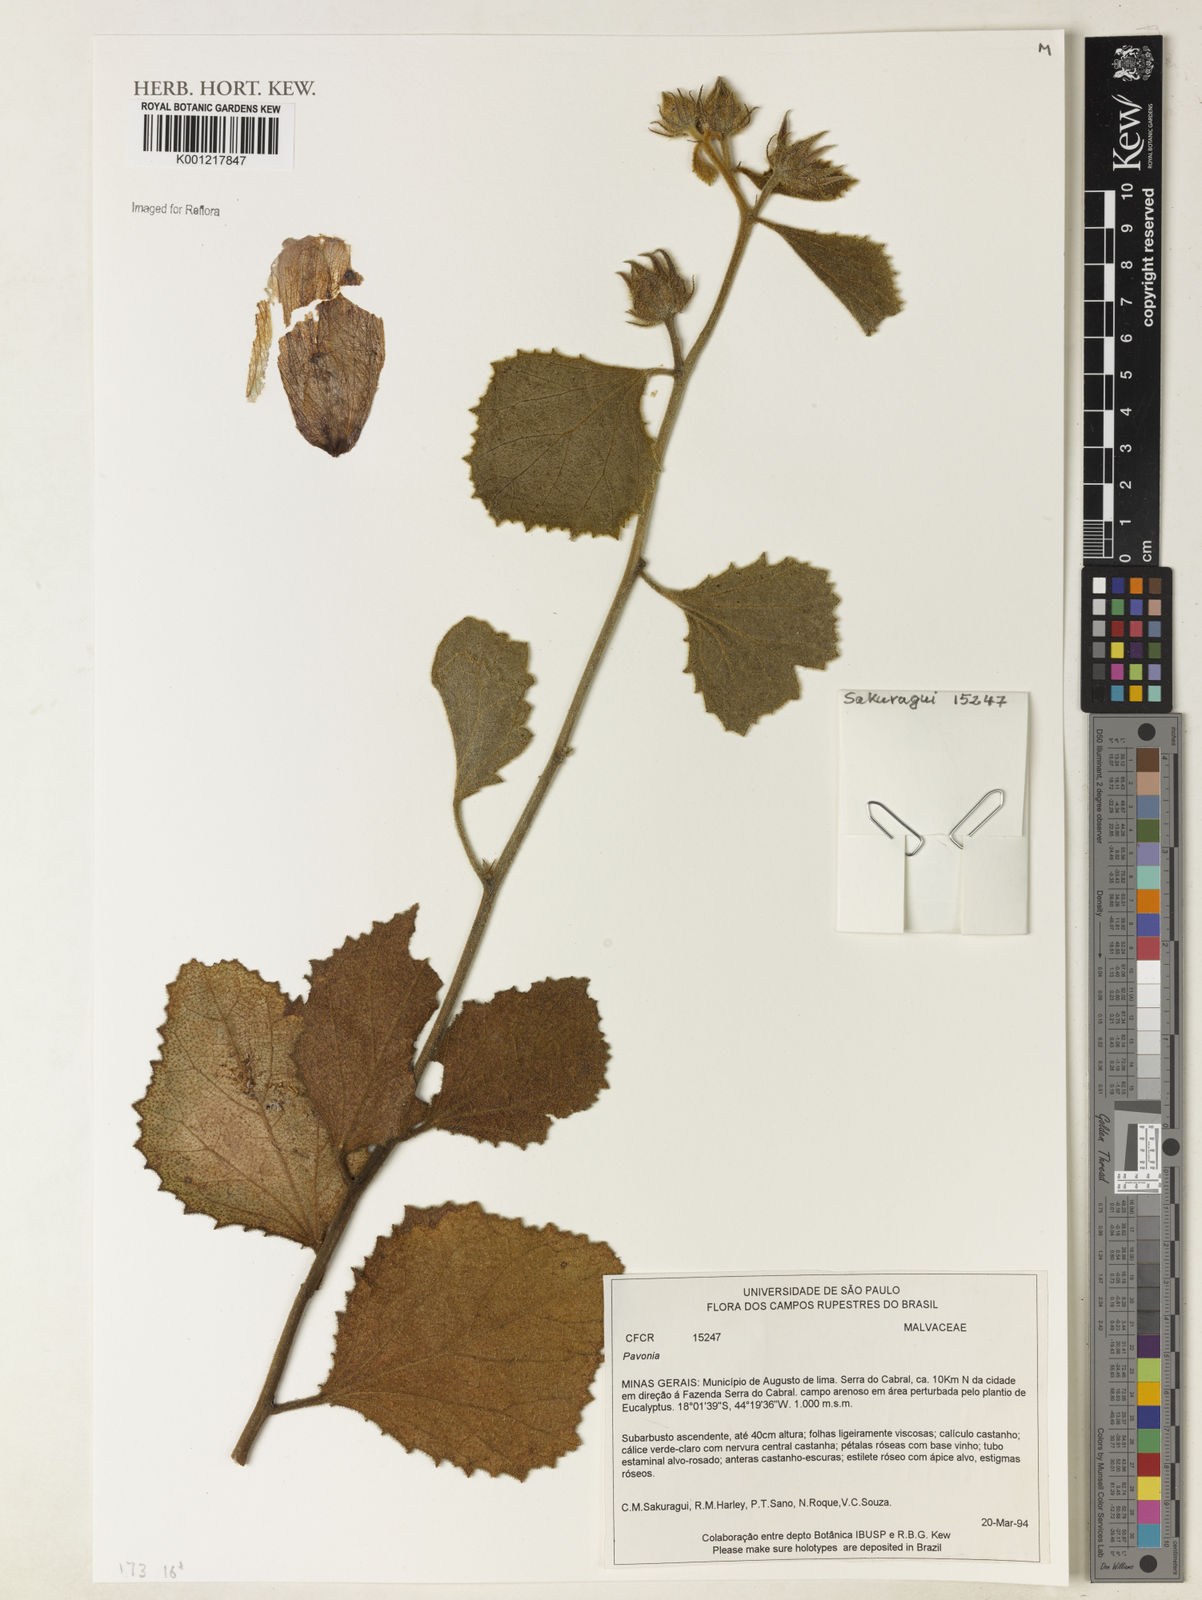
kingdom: Plantae
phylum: Tracheophyta
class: Magnoliopsida
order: Malvales
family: Malvaceae
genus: Pavonia
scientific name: Pavonia
